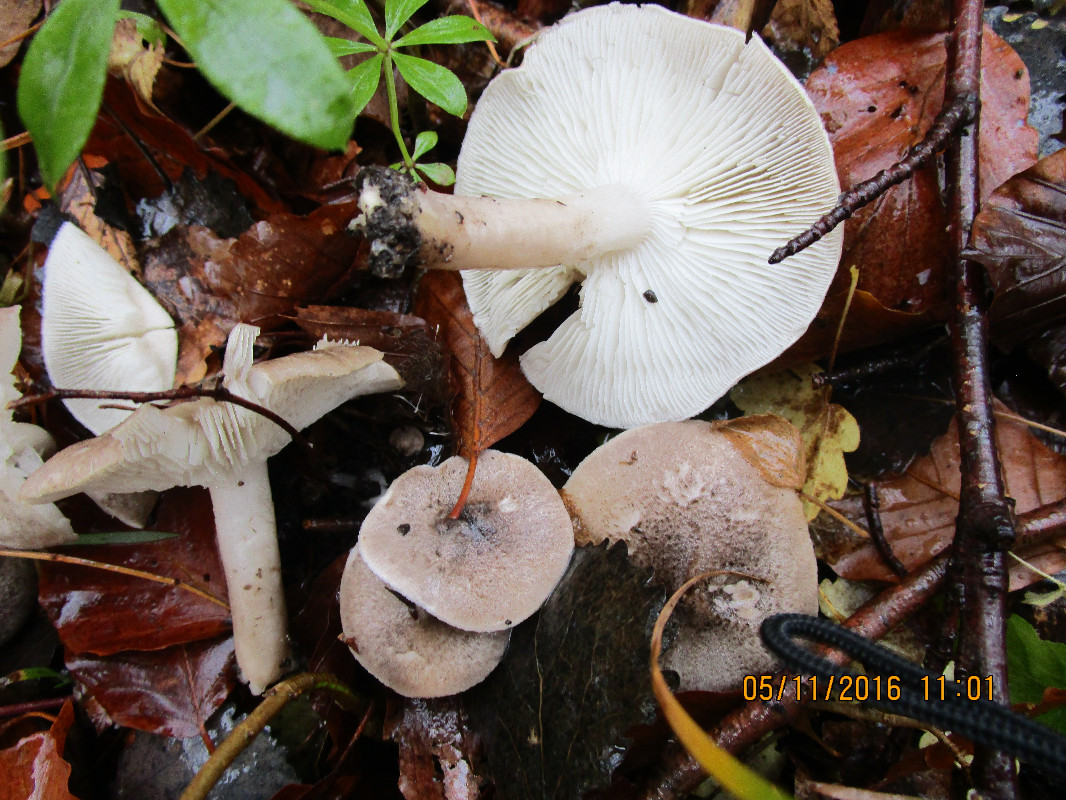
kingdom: Fungi
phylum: Basidiomycota
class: Agaricomycetes
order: Agaricales
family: Tricholomataceae
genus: Tricholoma
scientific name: Tricholoma scalpturatum
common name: gulplettet ridderhat
